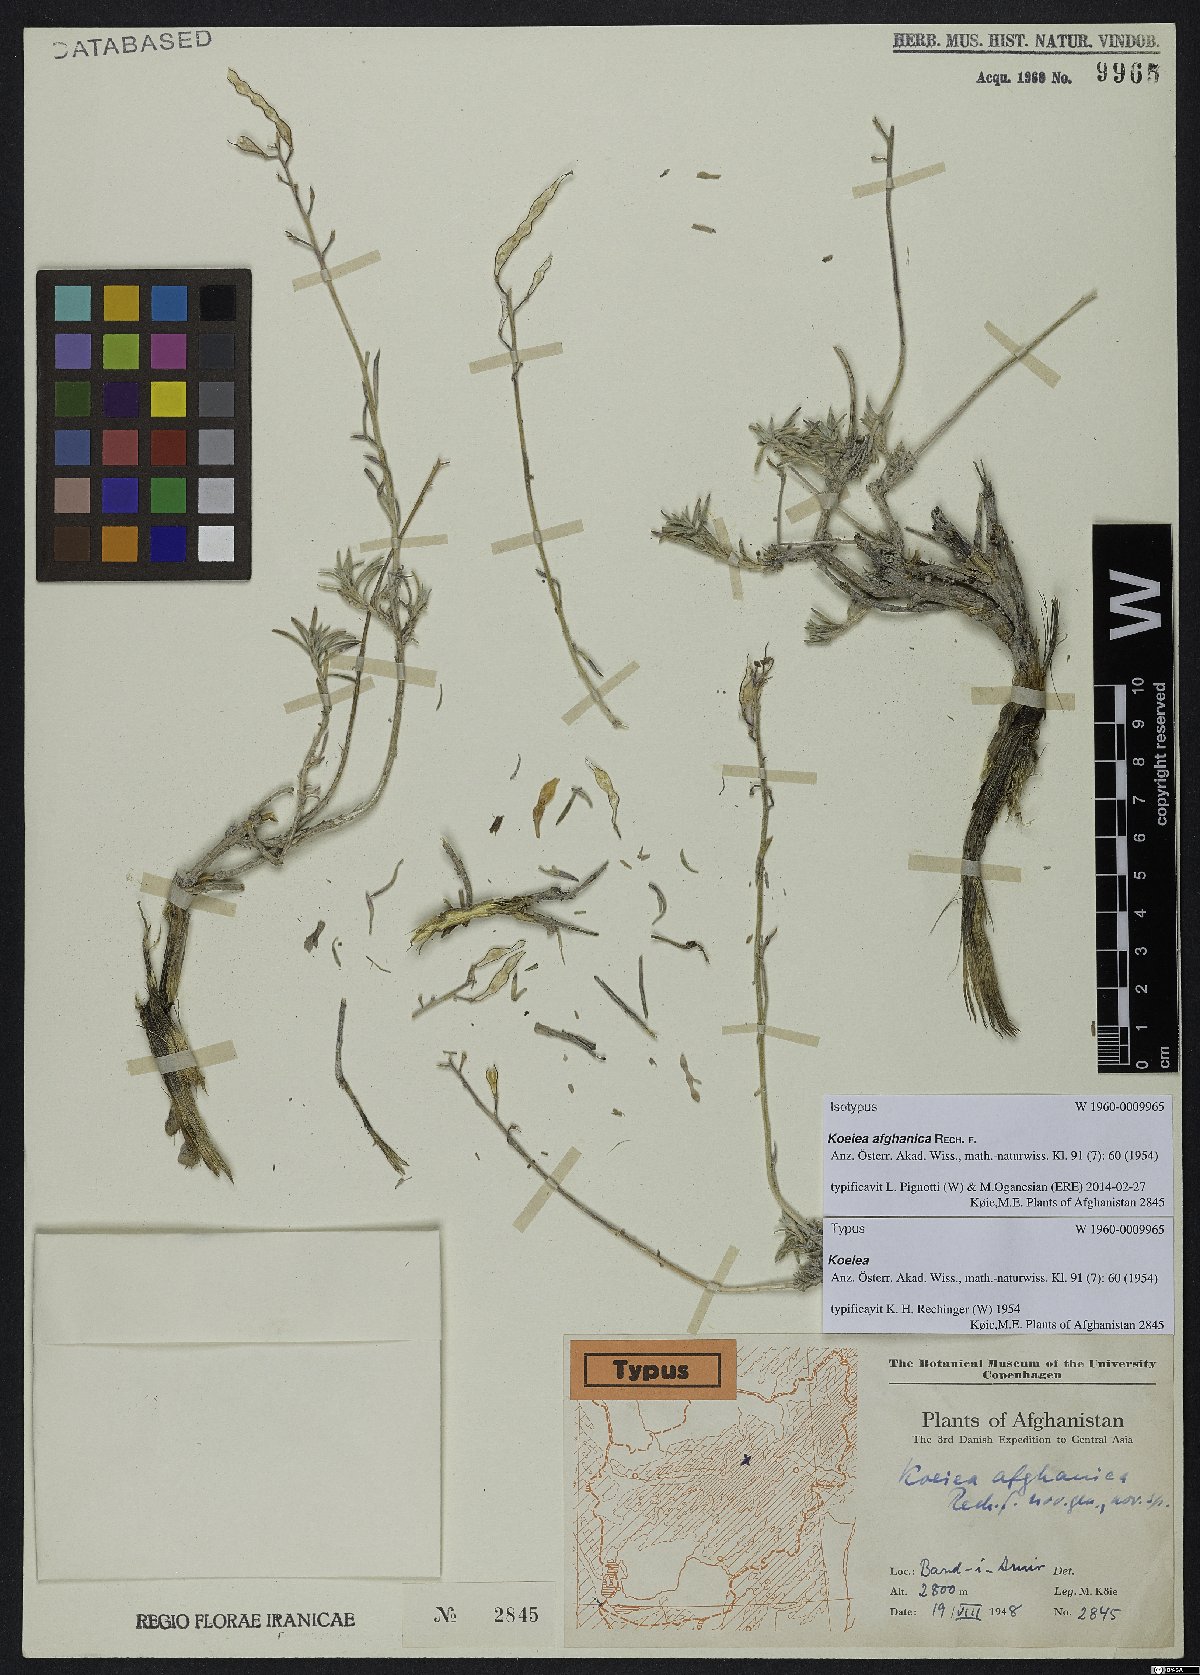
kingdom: Plantae
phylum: Tracheophyta
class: Magnoliopsida
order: Brassicales
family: Brassicaceae
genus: Rhammatophyllum
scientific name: Rhammatophyllum afghanicum
